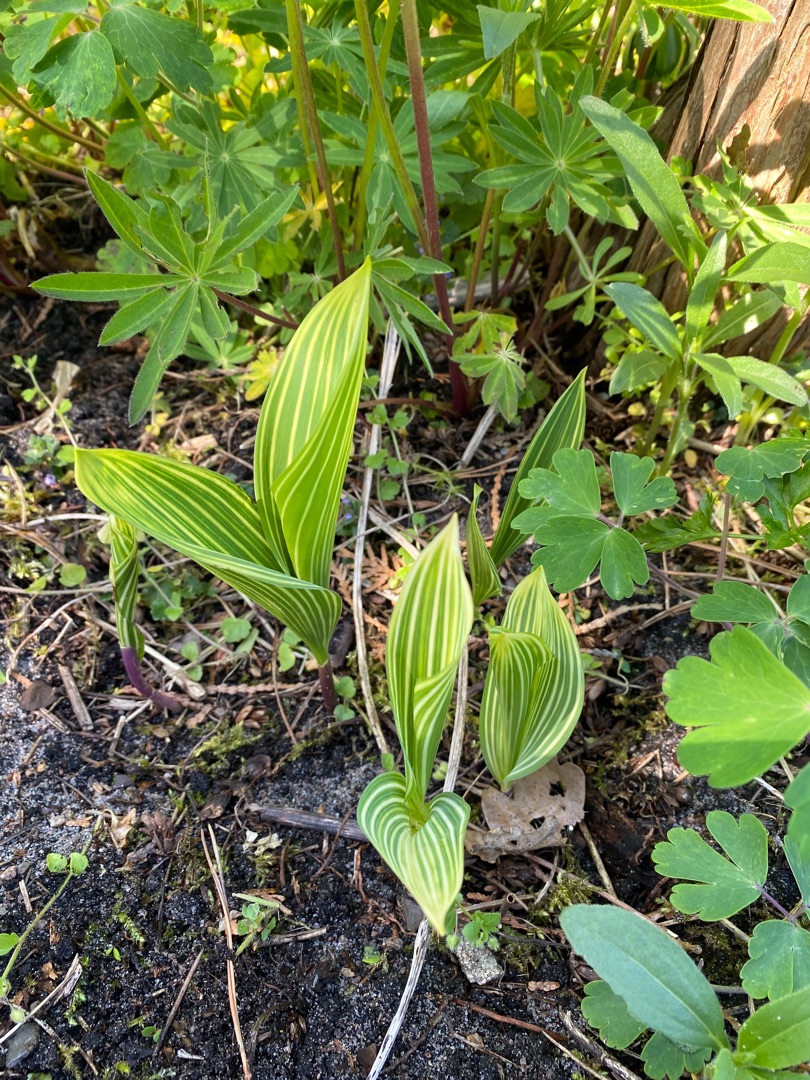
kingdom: Plantae
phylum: Tracheophyta
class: Liliopsida
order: Asparagales
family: Asparagaceae
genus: Convallaria
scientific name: Convallaria
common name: Liljekonvalslægten
